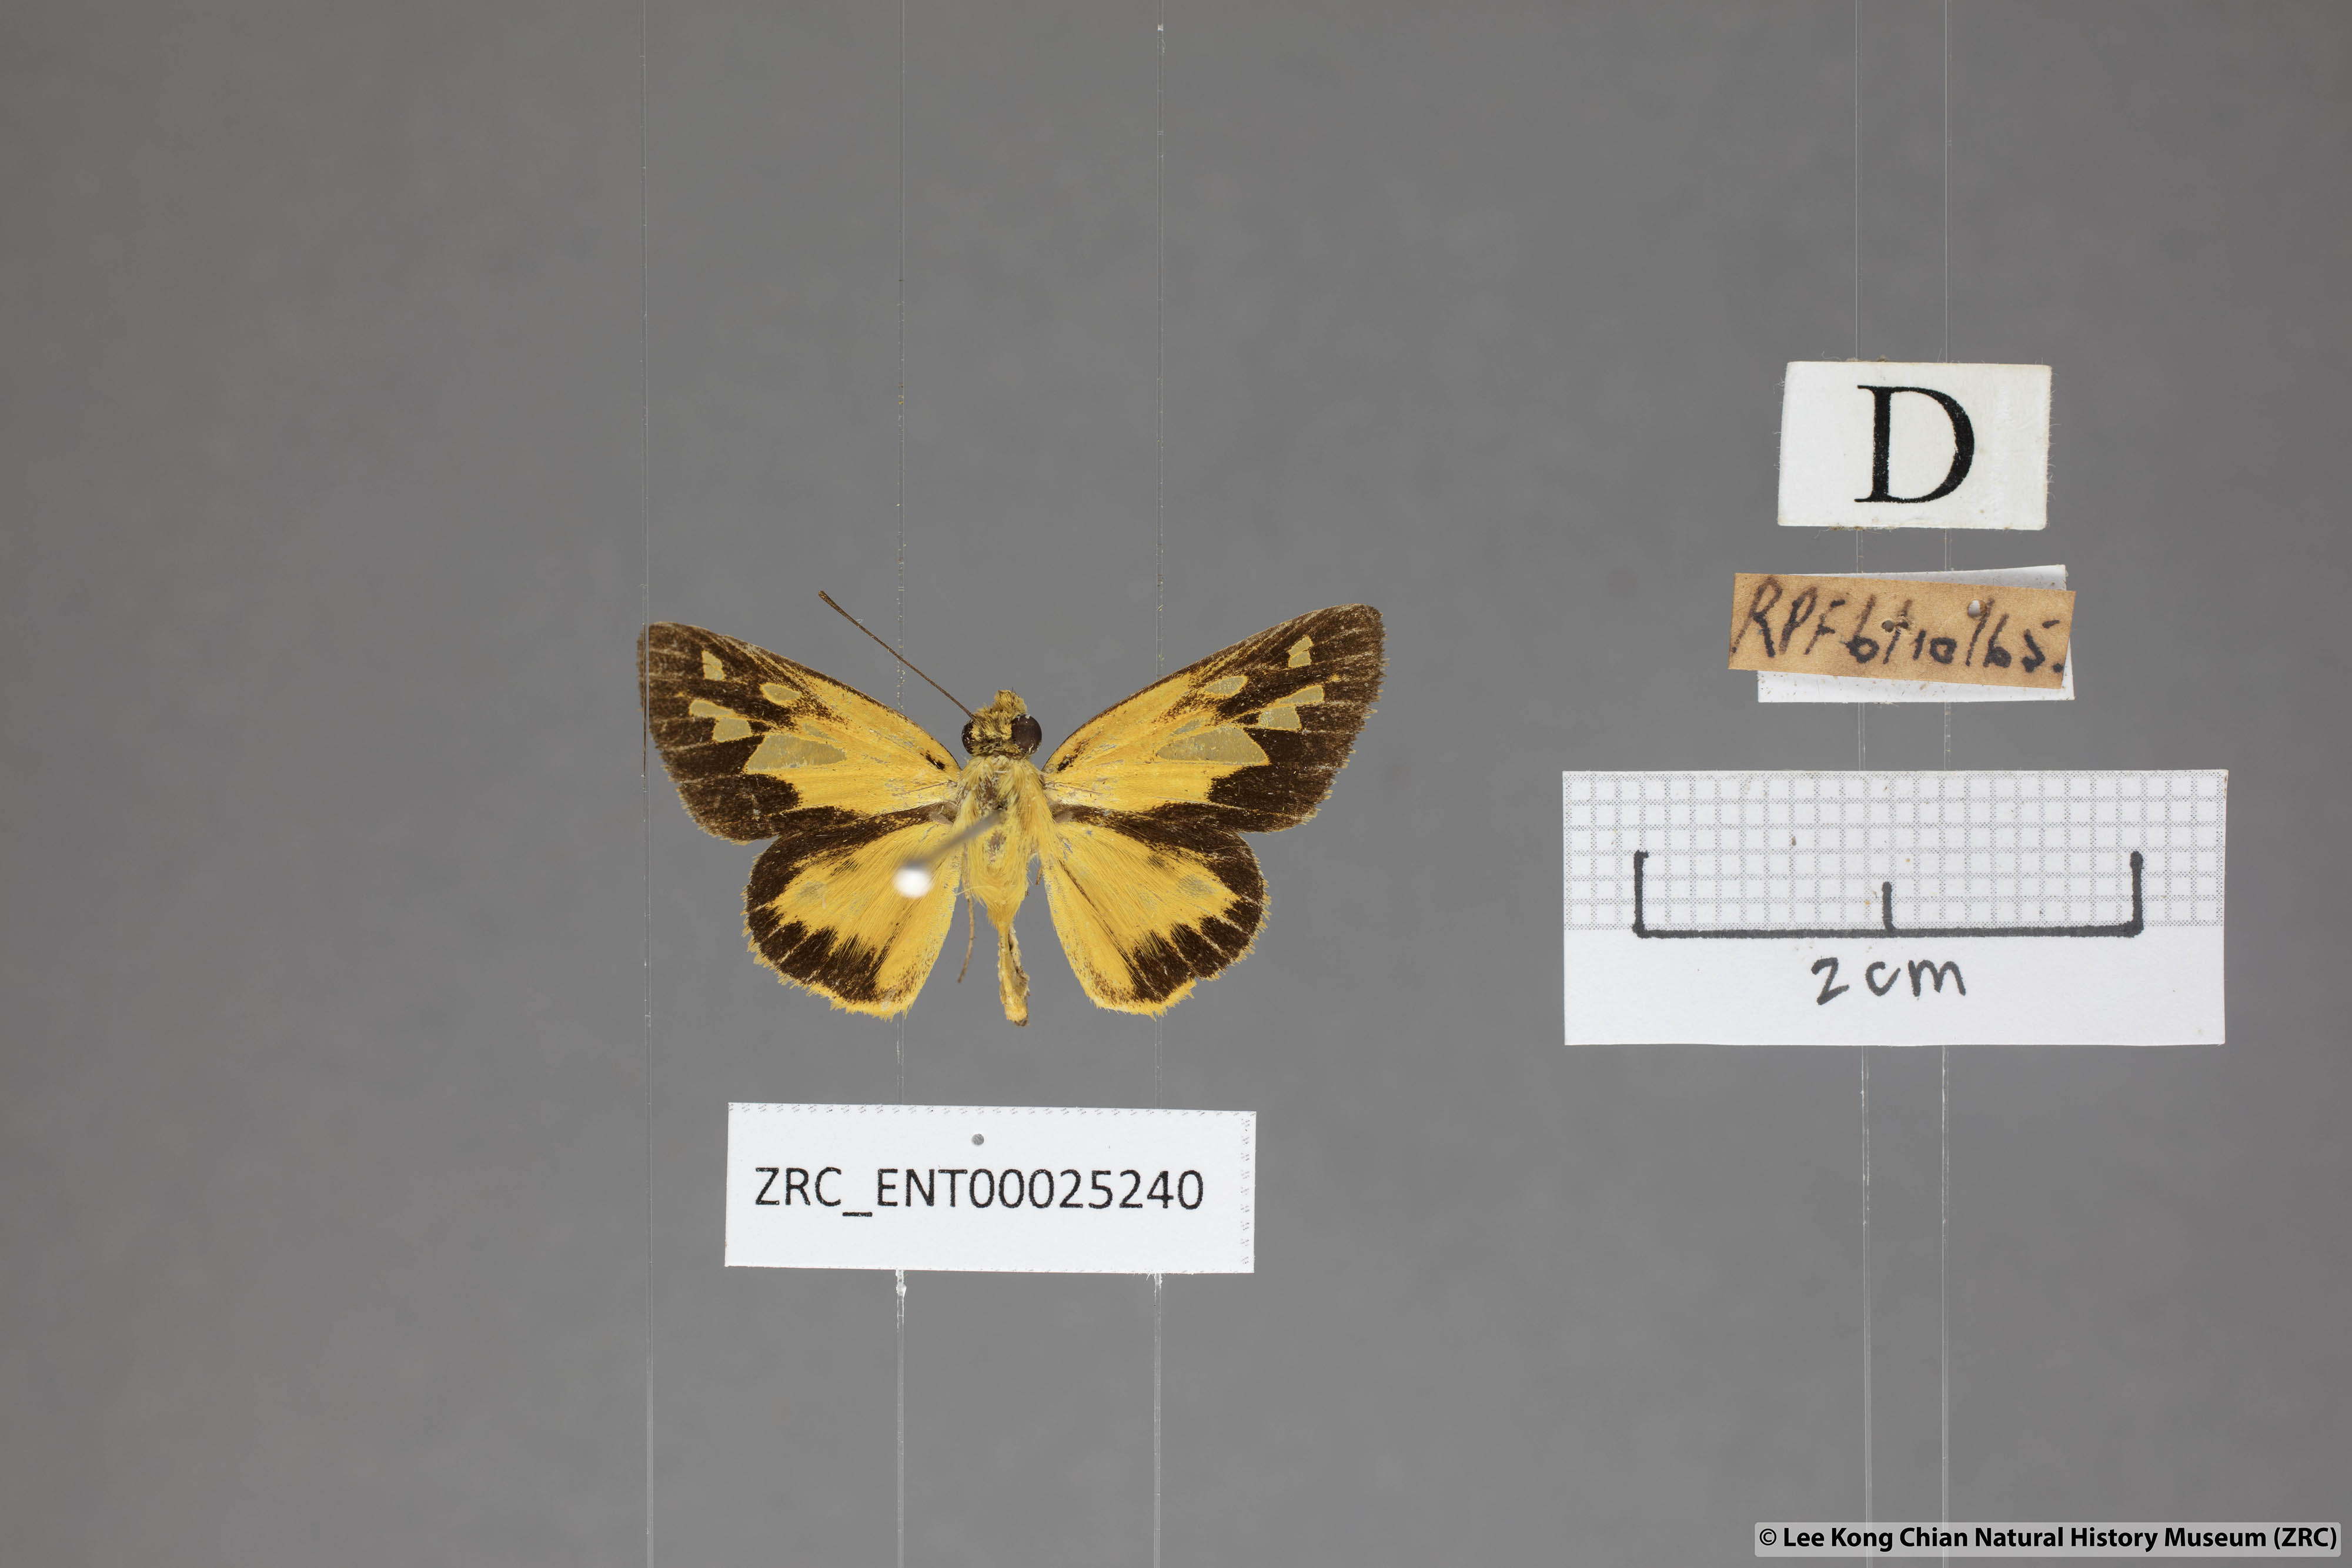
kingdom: Animalia
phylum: Arthropoda
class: Insecta
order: Lepidoptera
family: Hesperiidae
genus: Pyroneura
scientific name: Pyroneura helena
